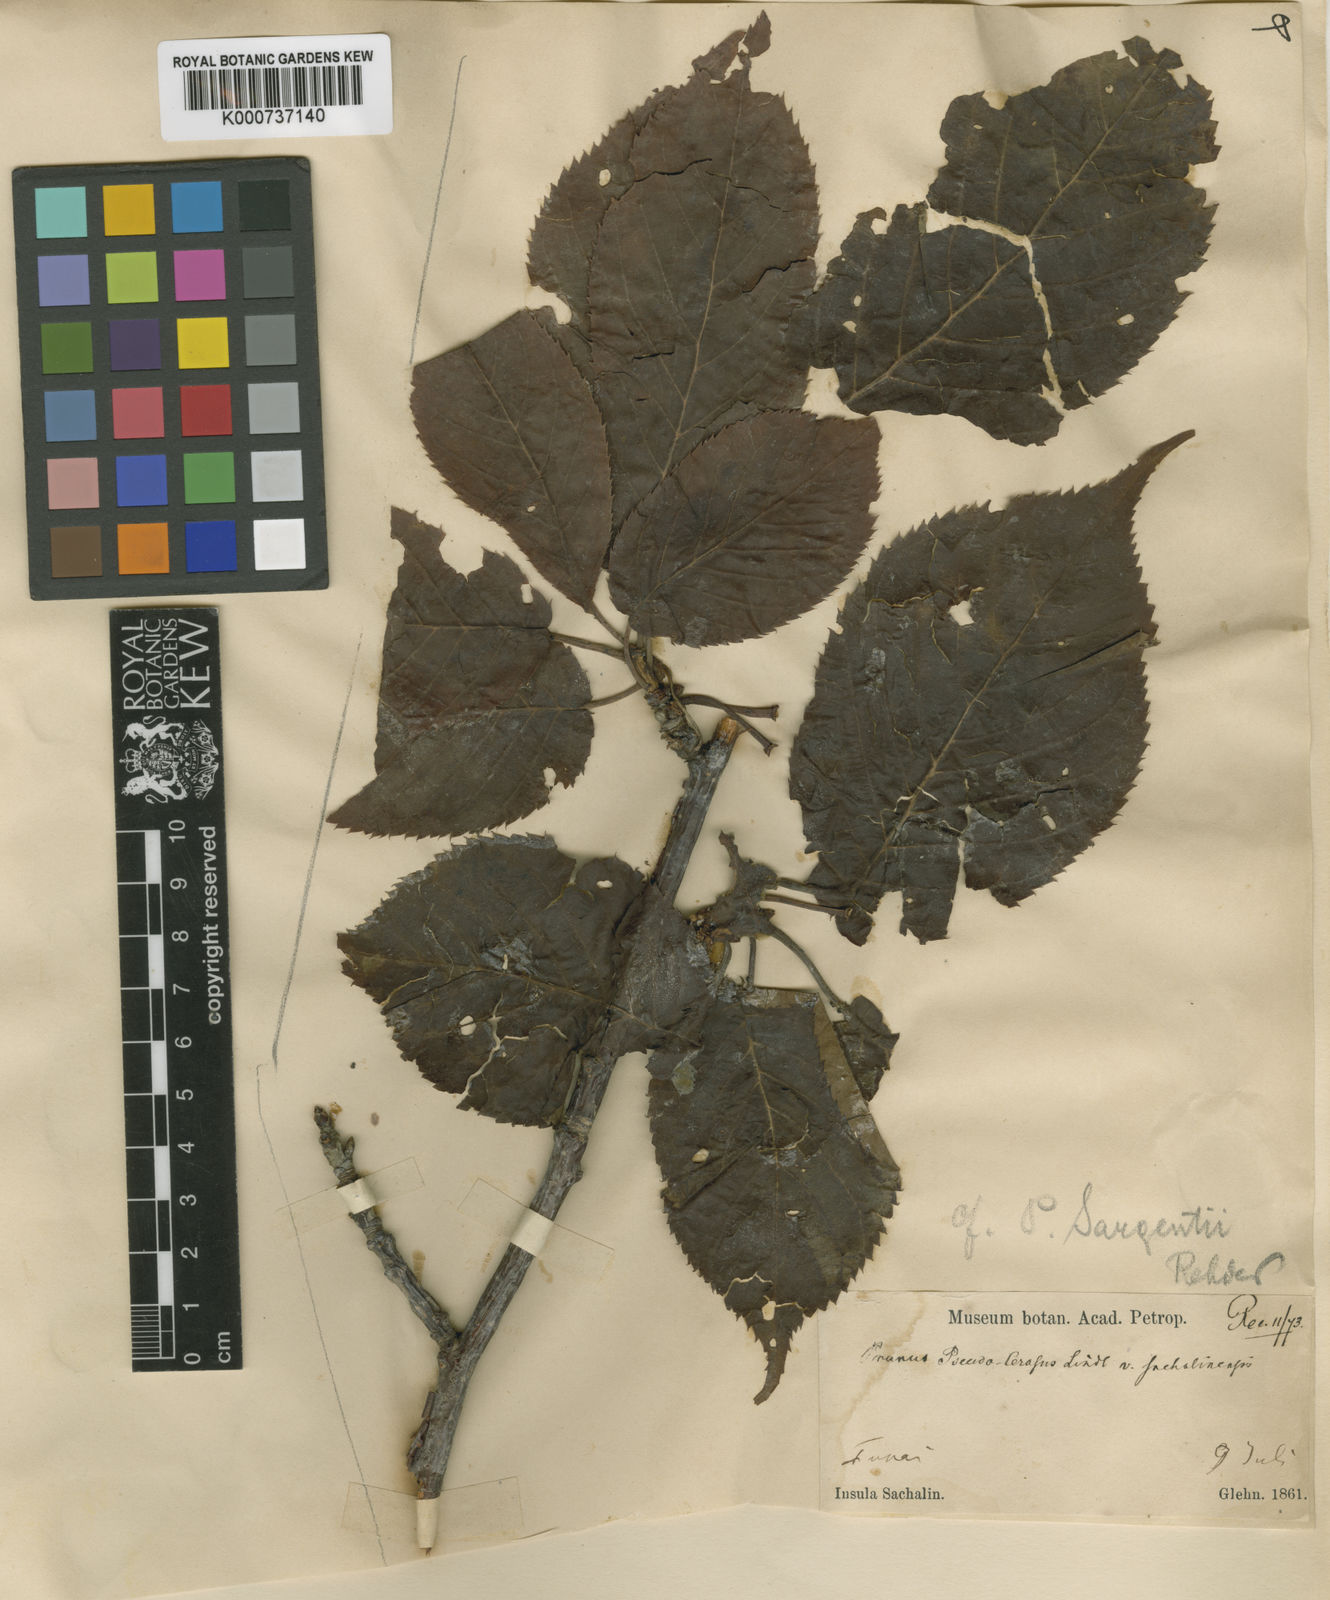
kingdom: Plantae
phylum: Tracheophyta
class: Magnoliopsida
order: Rosales
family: Rosaceae
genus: Prunus
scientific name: Prunus sargentii
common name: Sargent cherry
